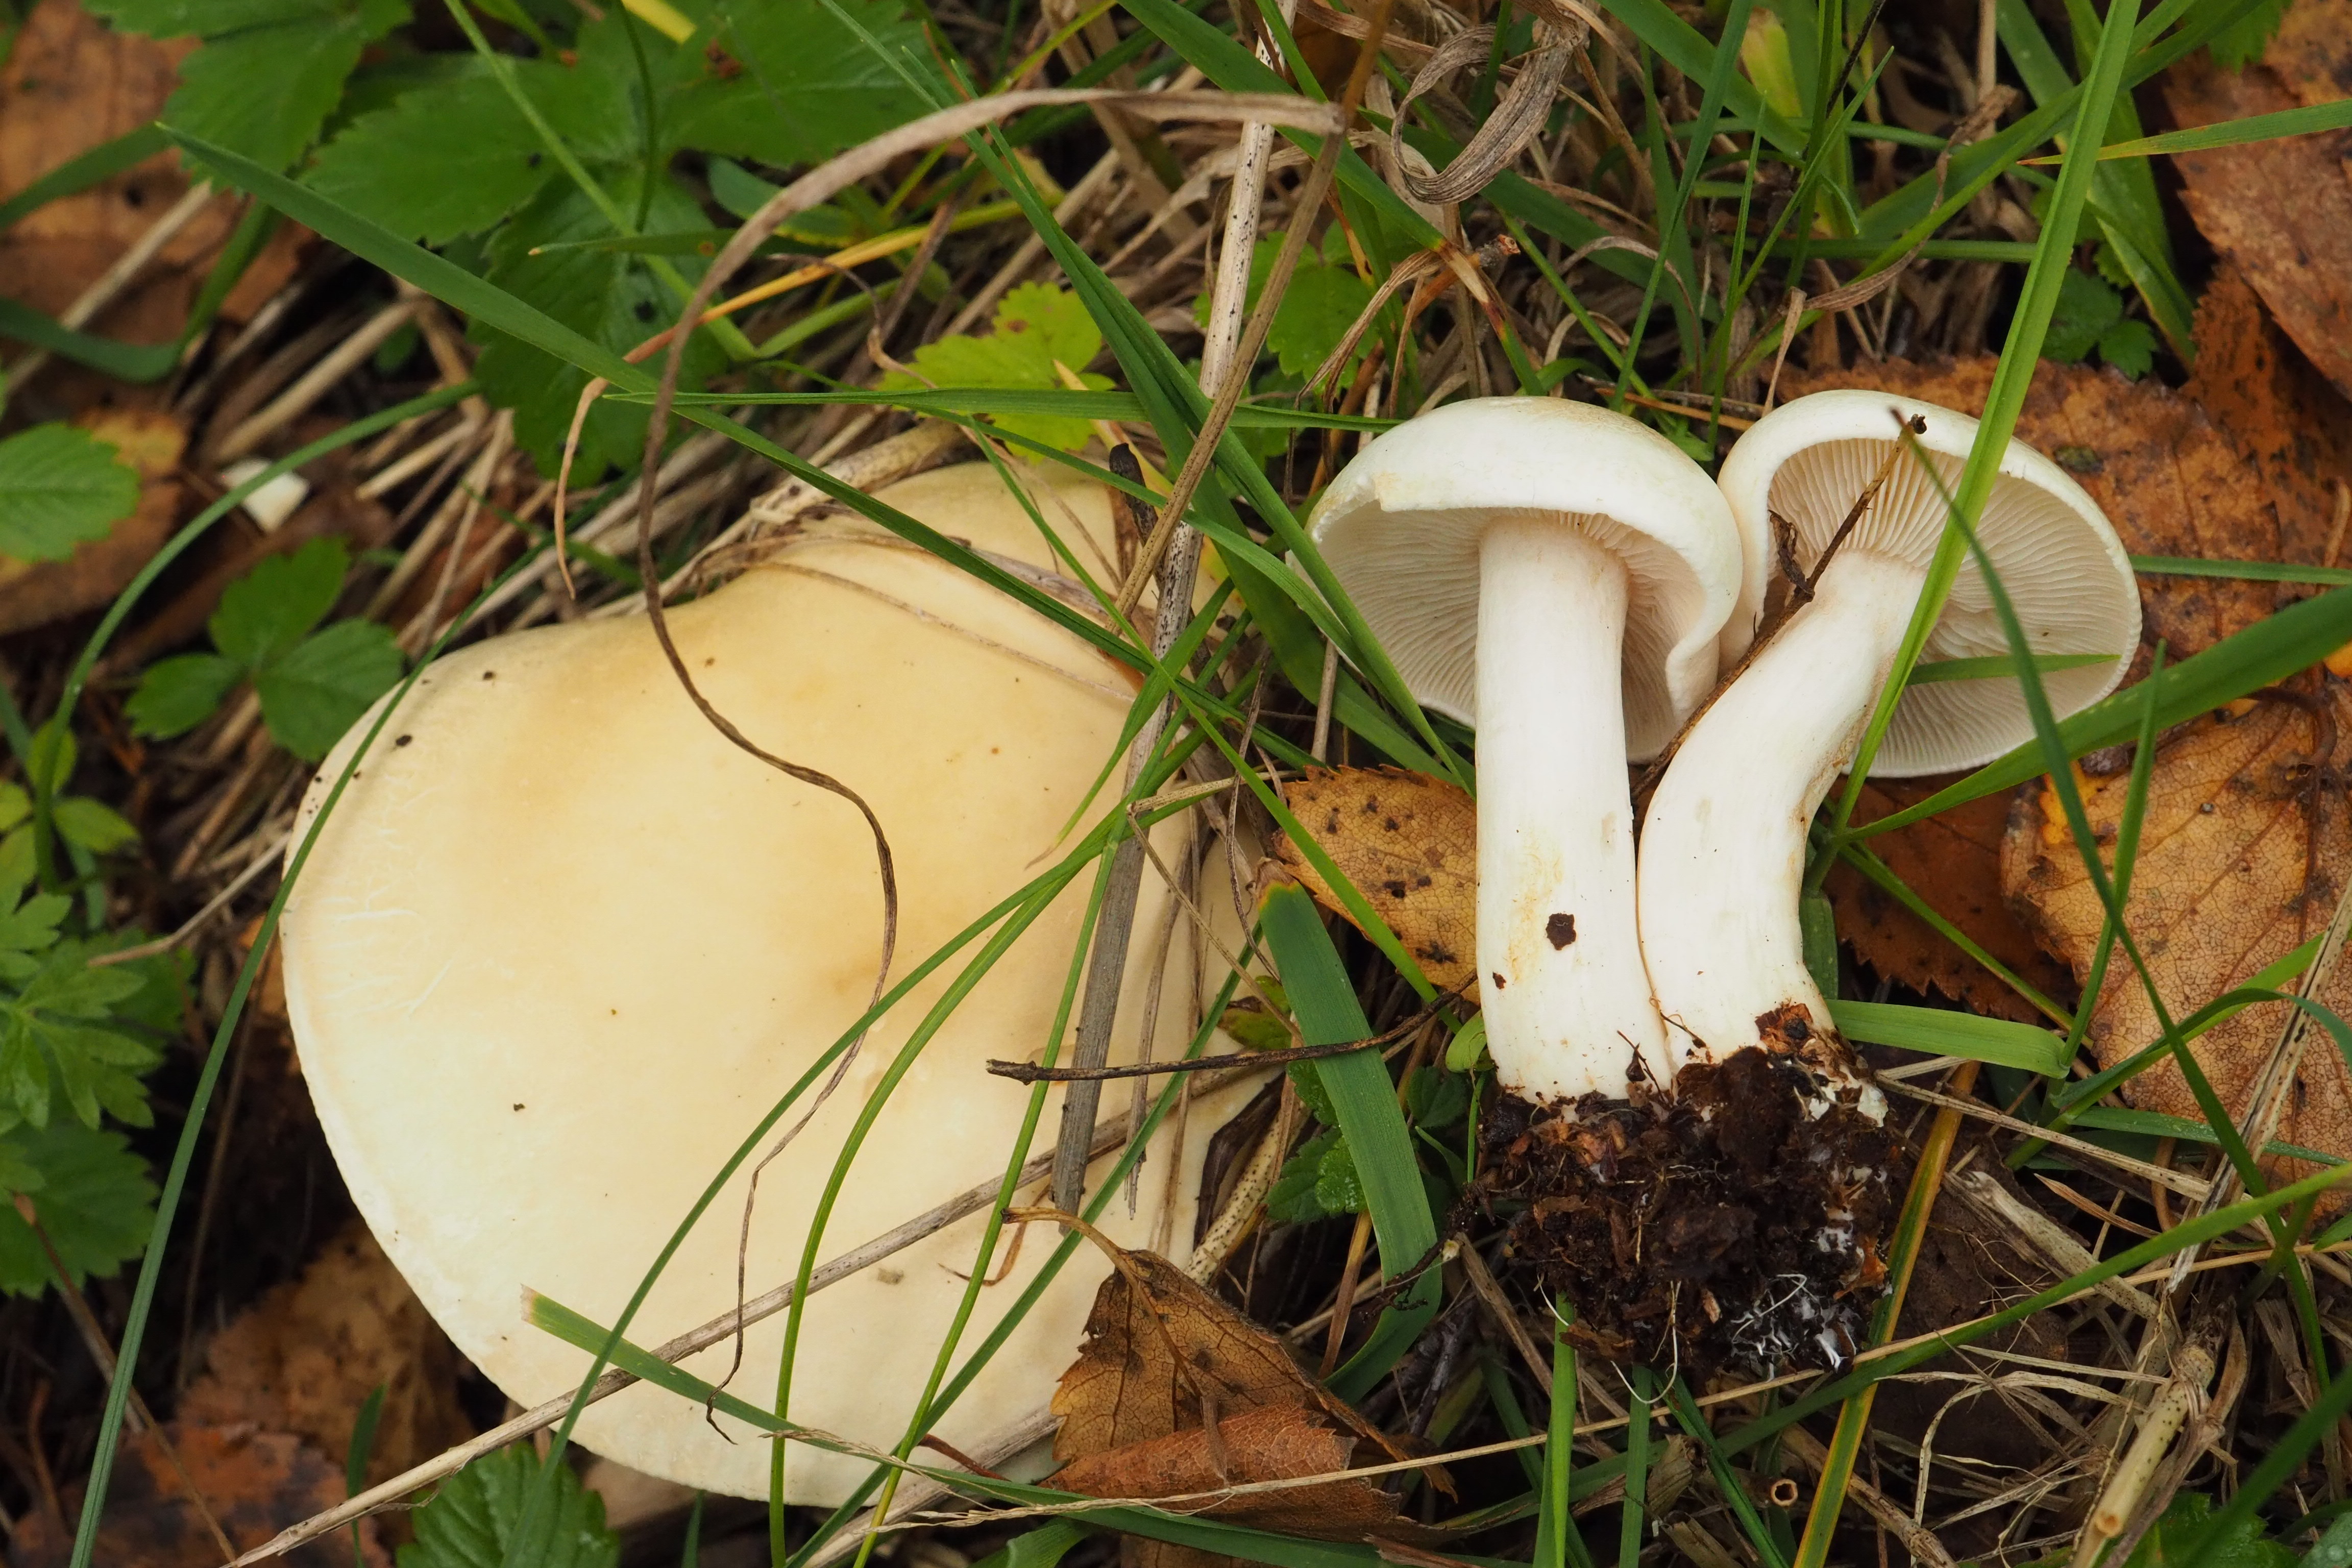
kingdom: Fungi
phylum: Basidiomycota
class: Agaricomycetes
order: Agaricales
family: Tricholomataceae
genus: Tricholoma
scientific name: Tricholoma stiparophyllum
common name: Chemical knight
